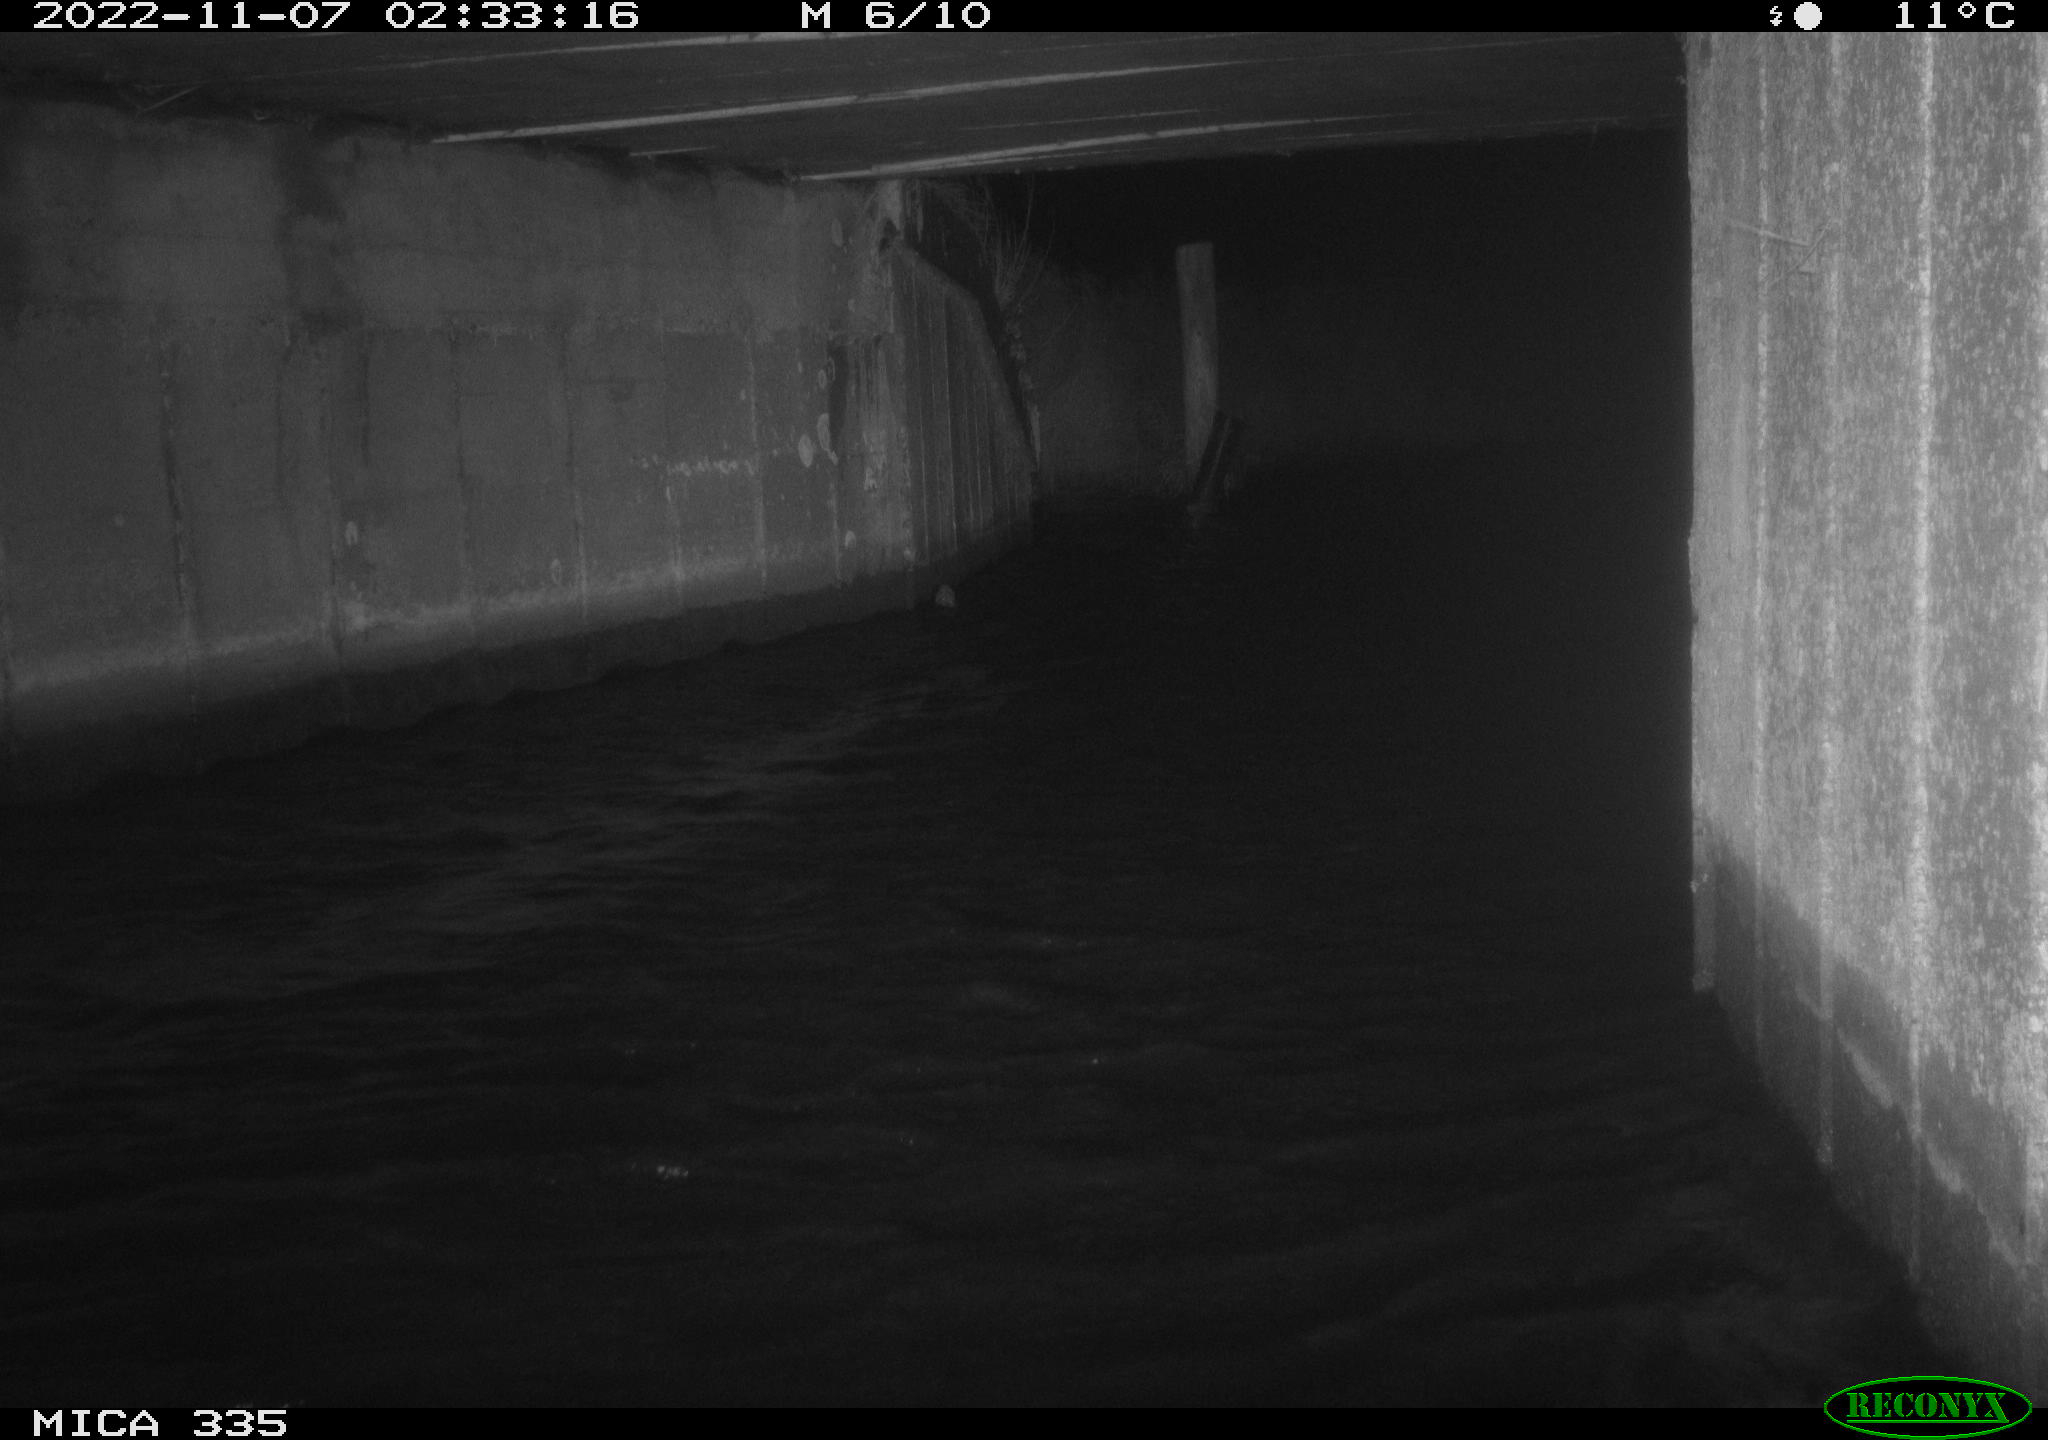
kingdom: Animalia
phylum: Chordata
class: Aves
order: Anseriformes
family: Anatidae
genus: Anas
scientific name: Anas platyrhynchos
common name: Mallard
